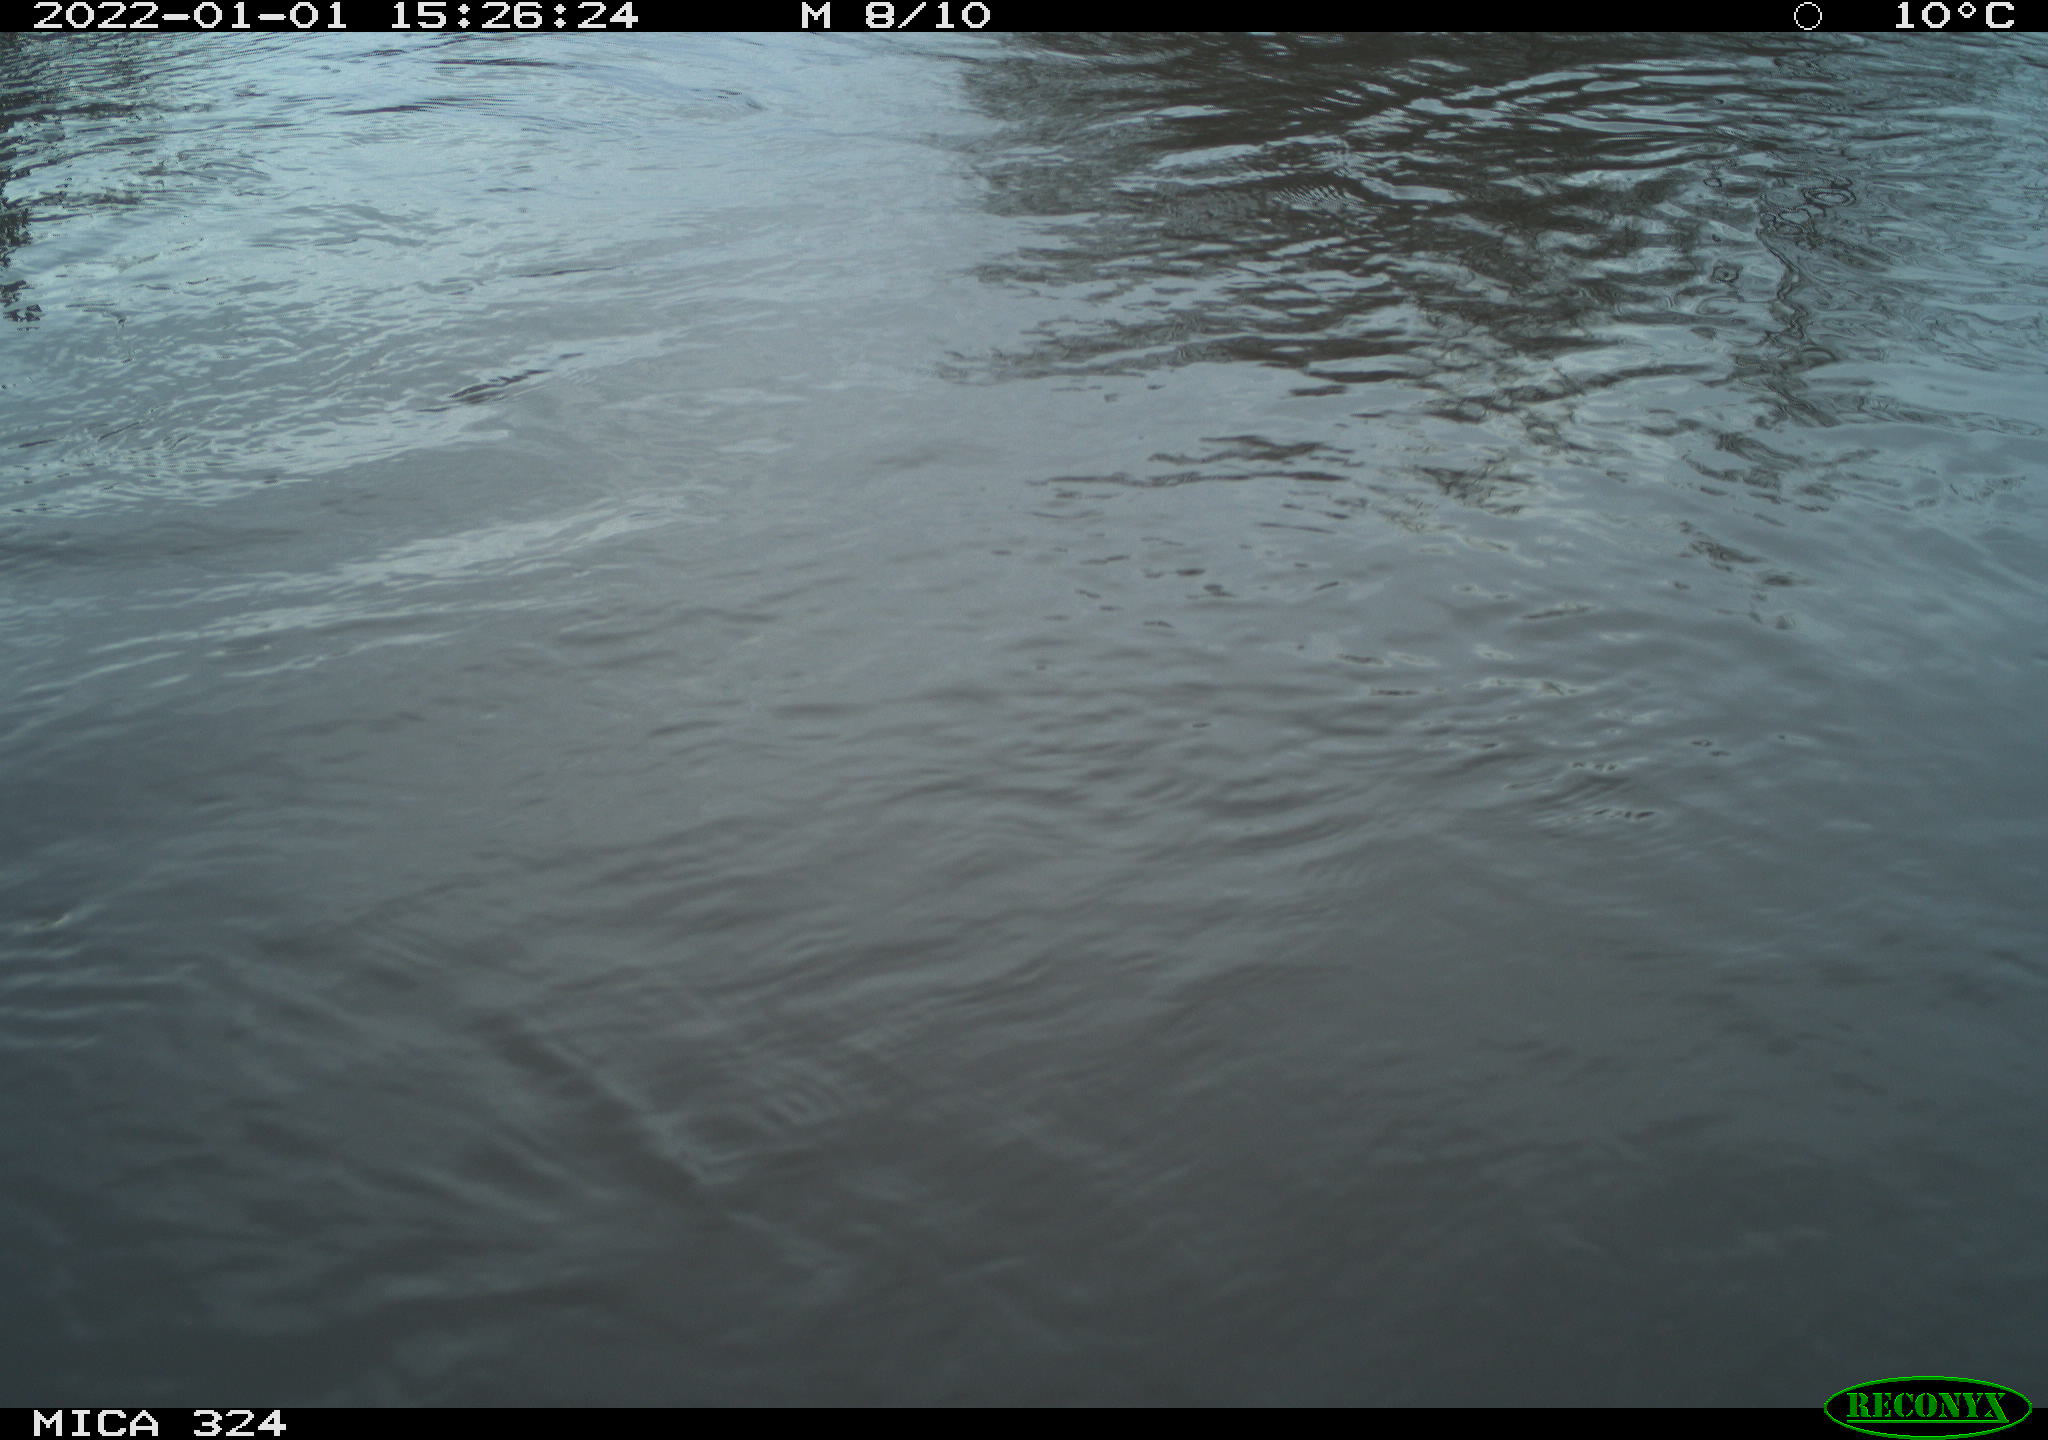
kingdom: Animalia
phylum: Chordata
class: Mammalia
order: Rodentia
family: Cricetidae
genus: Ondatra
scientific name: Ondatra zibethicus
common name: Muskrat
